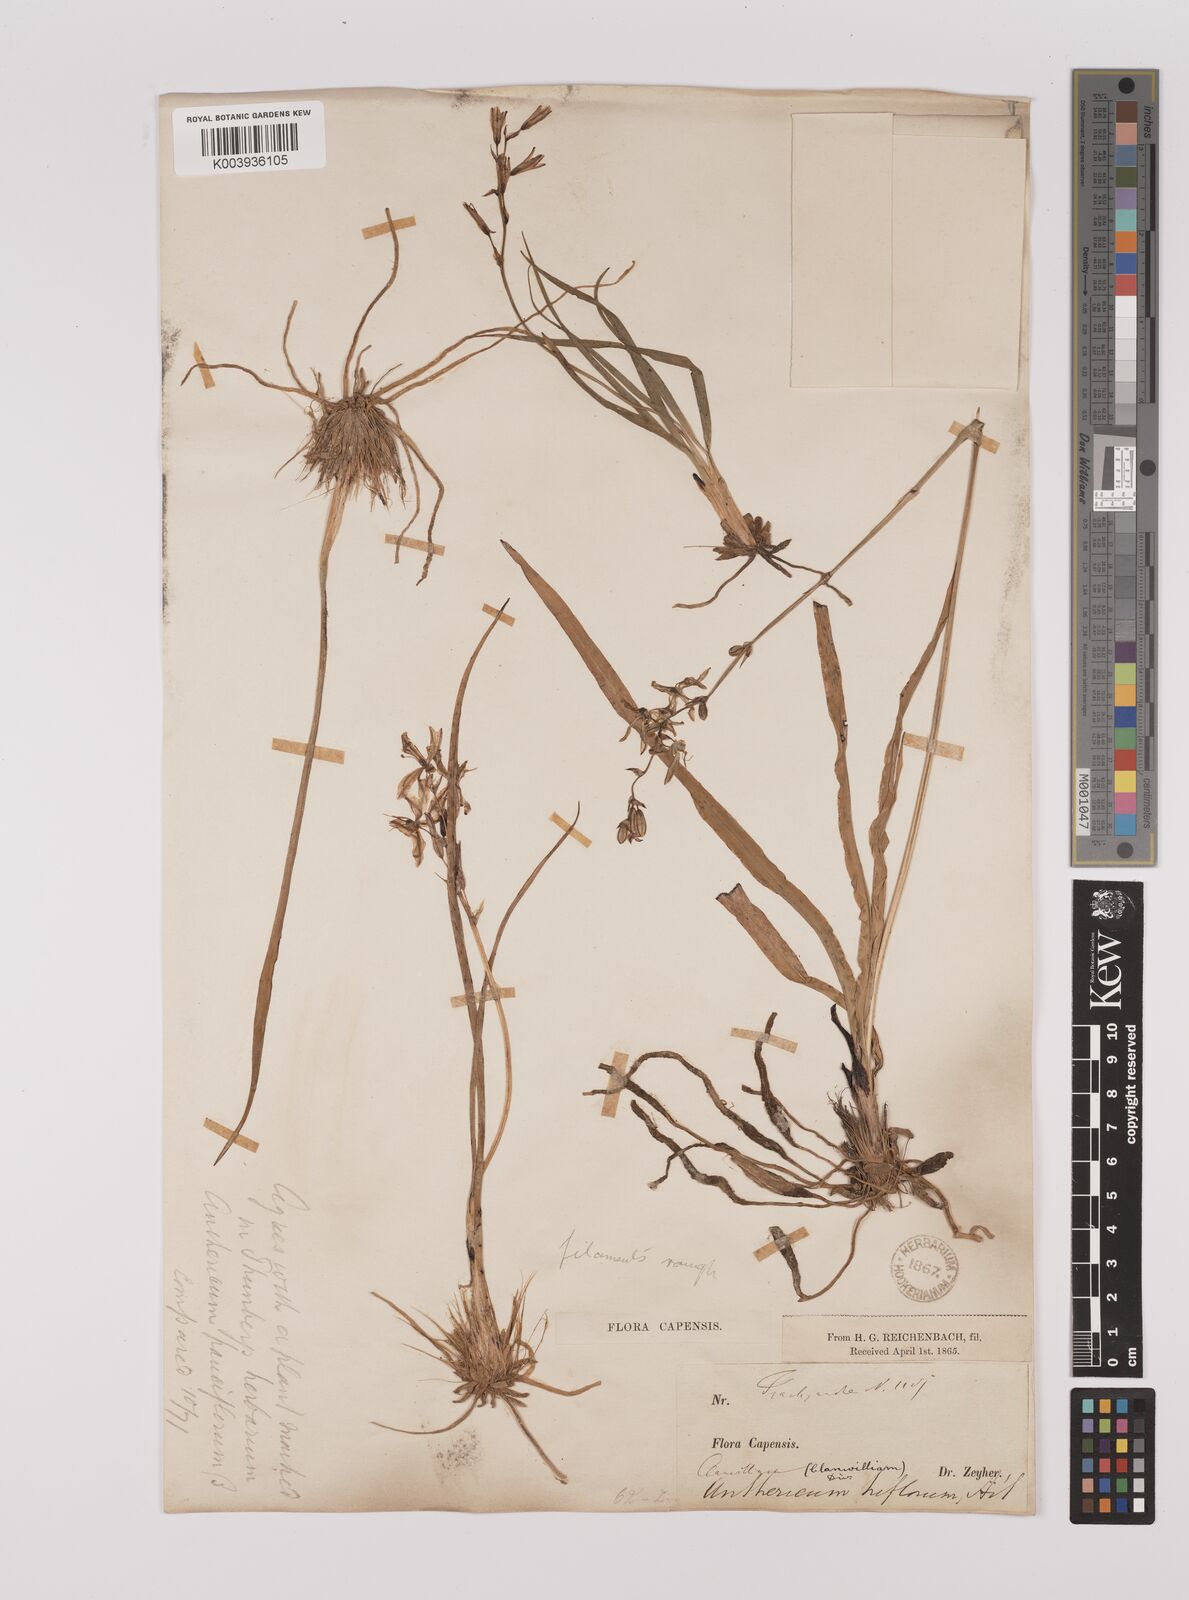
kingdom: Plantae
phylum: Tracheophyta
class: Liliopsida
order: Asparagales
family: Asparagaceae
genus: Chlorophytum
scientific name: Chlorophytum triflorum
